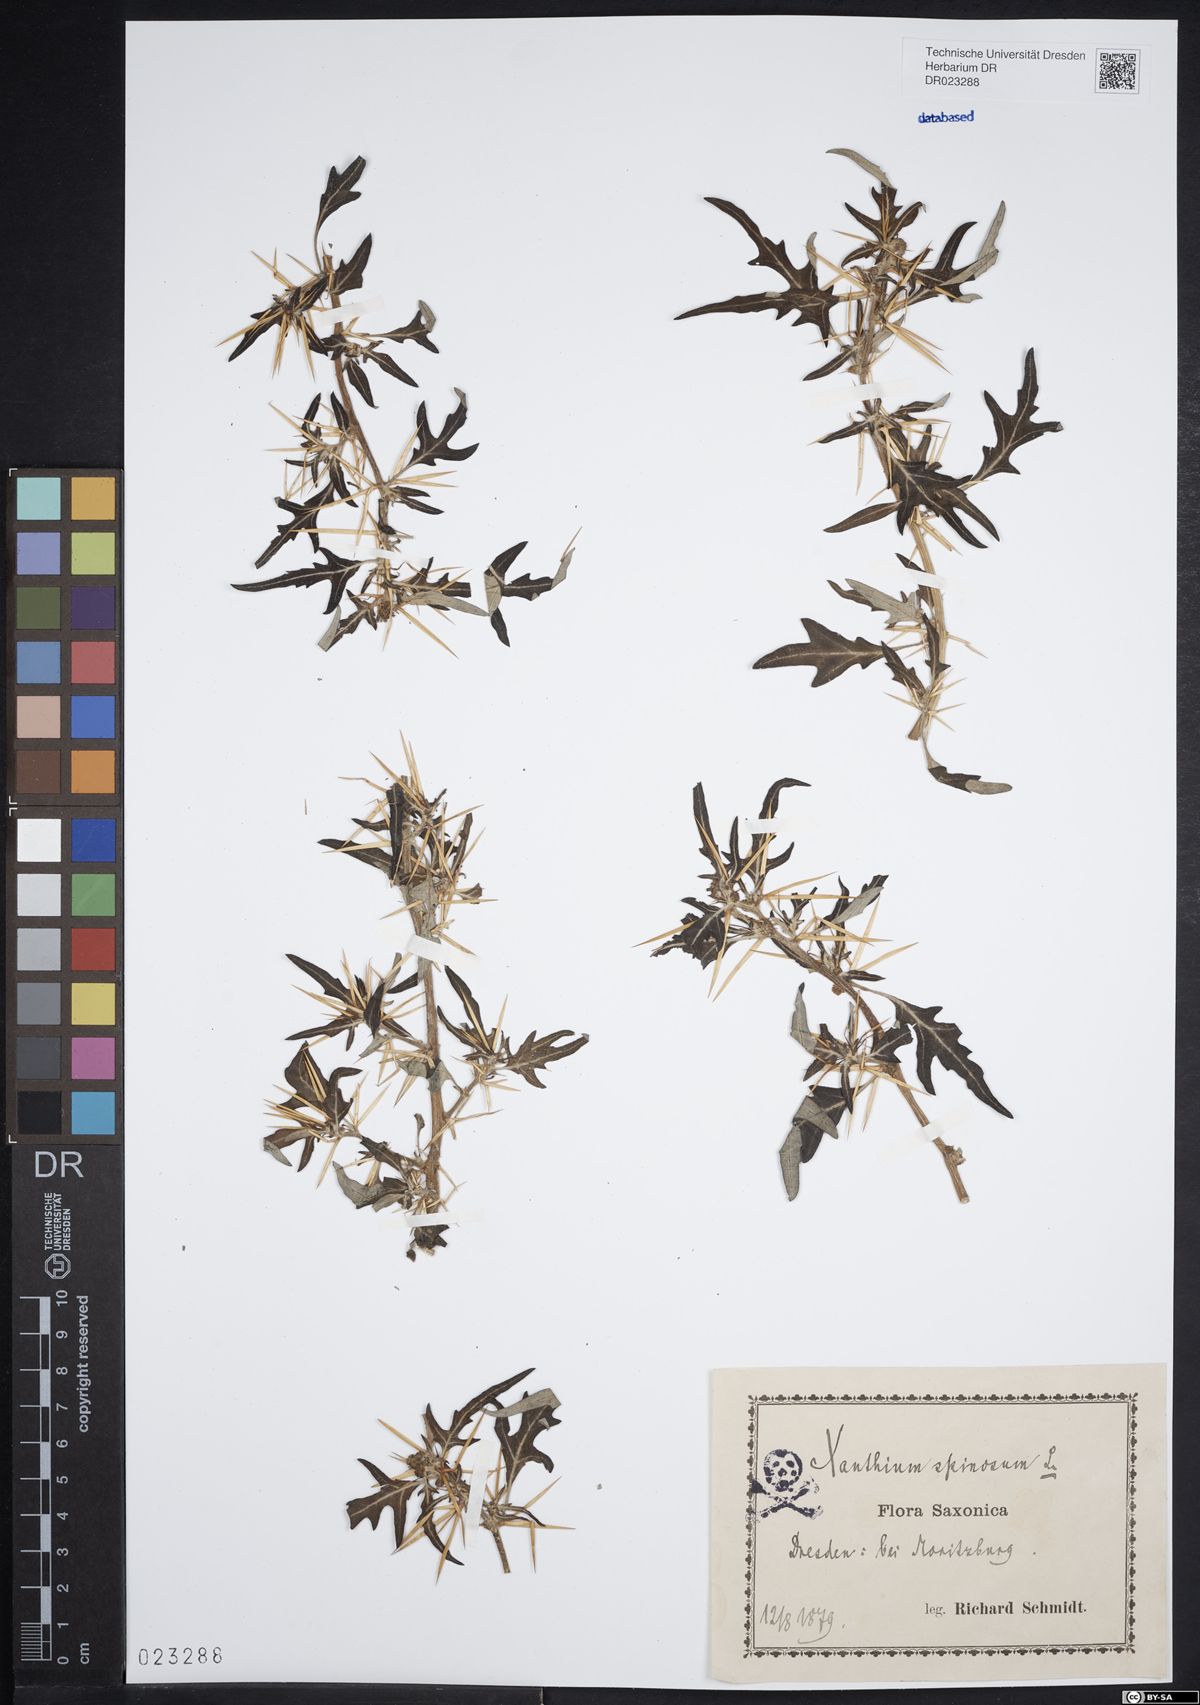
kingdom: Plantae
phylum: Tracheophyta
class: Magnoliopsida
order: Asterales
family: Asteraceae
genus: Xanthium
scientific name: Xanthium spinosum
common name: Spiny cocklebur
